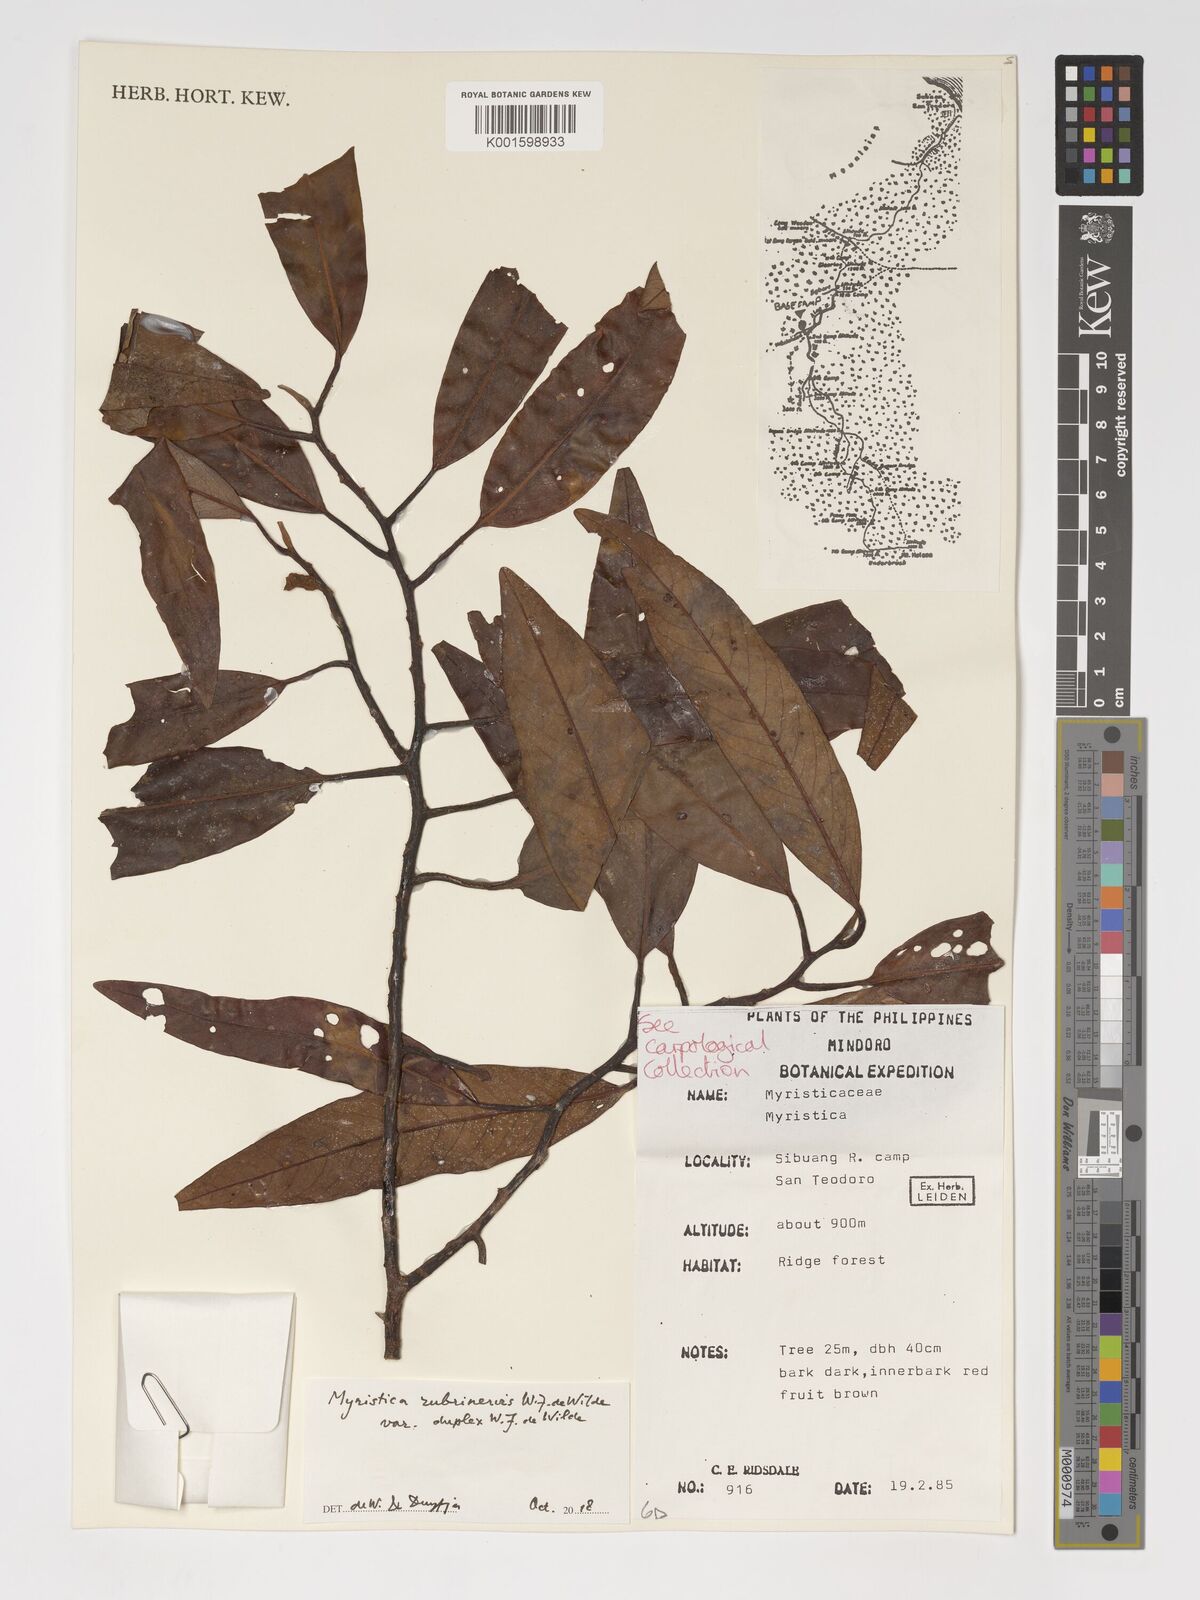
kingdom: Plantae
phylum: Tracheophyta
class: Magnoliopsida
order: Magnoliales
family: Myristicaceae
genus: Myristica
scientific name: Myristica rubrinervis
